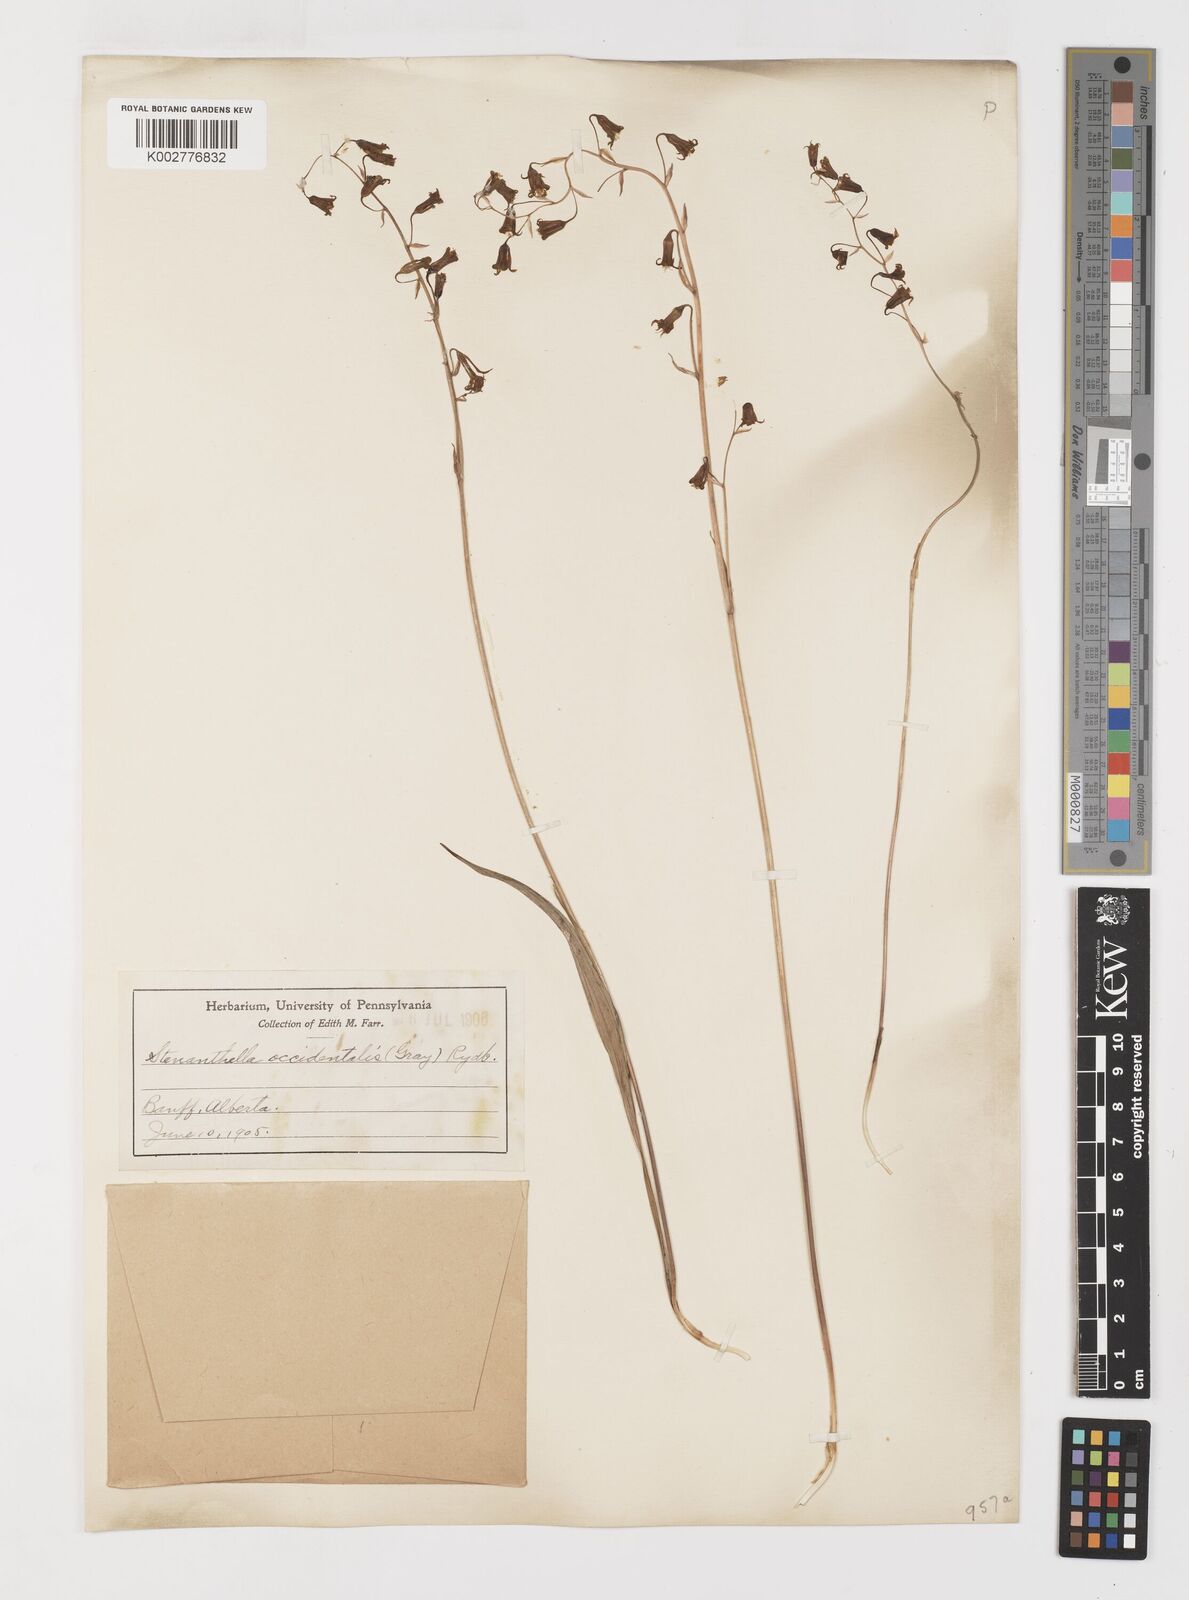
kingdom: Plantae
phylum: Tracheophyta
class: Liliopsida
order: Liliales
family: Melanthiaceae
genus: Anticlea
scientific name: Anticlea occidentalis
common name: Bronze-bells
